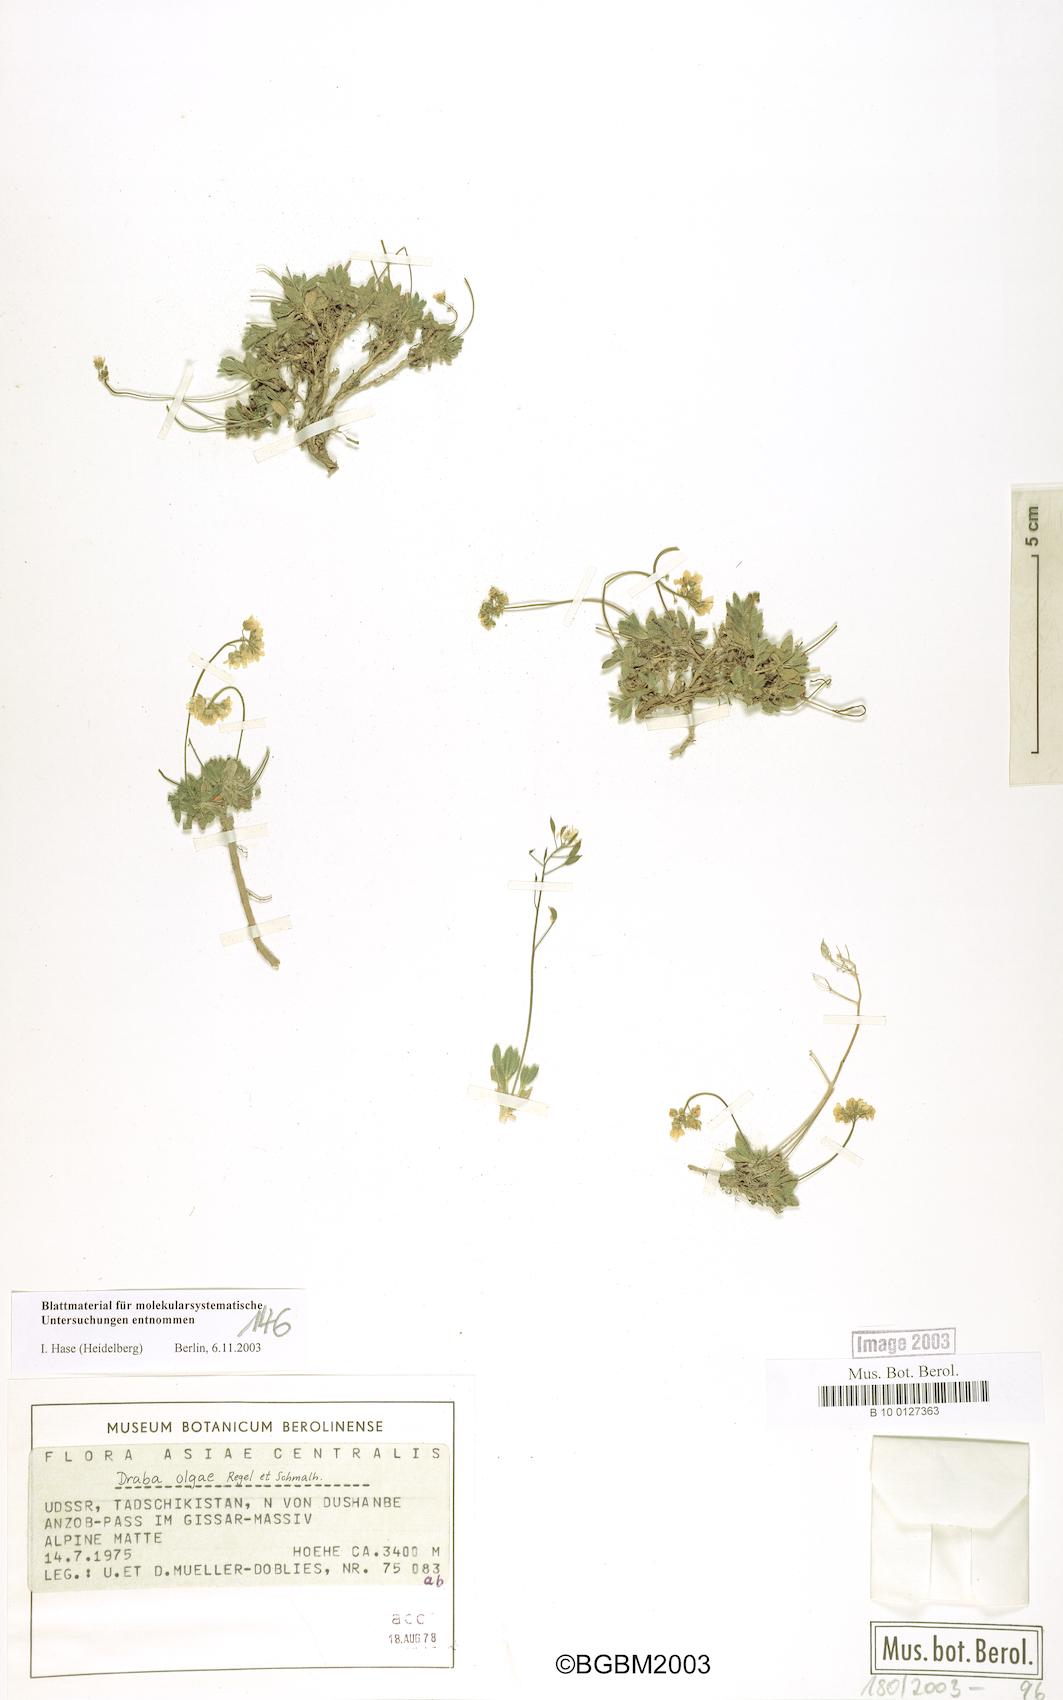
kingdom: Plantae
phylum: Tracheophyta
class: Magnoliopsida
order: Brassicales
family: Brassicaceae
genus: Draba
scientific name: Draba olgae
